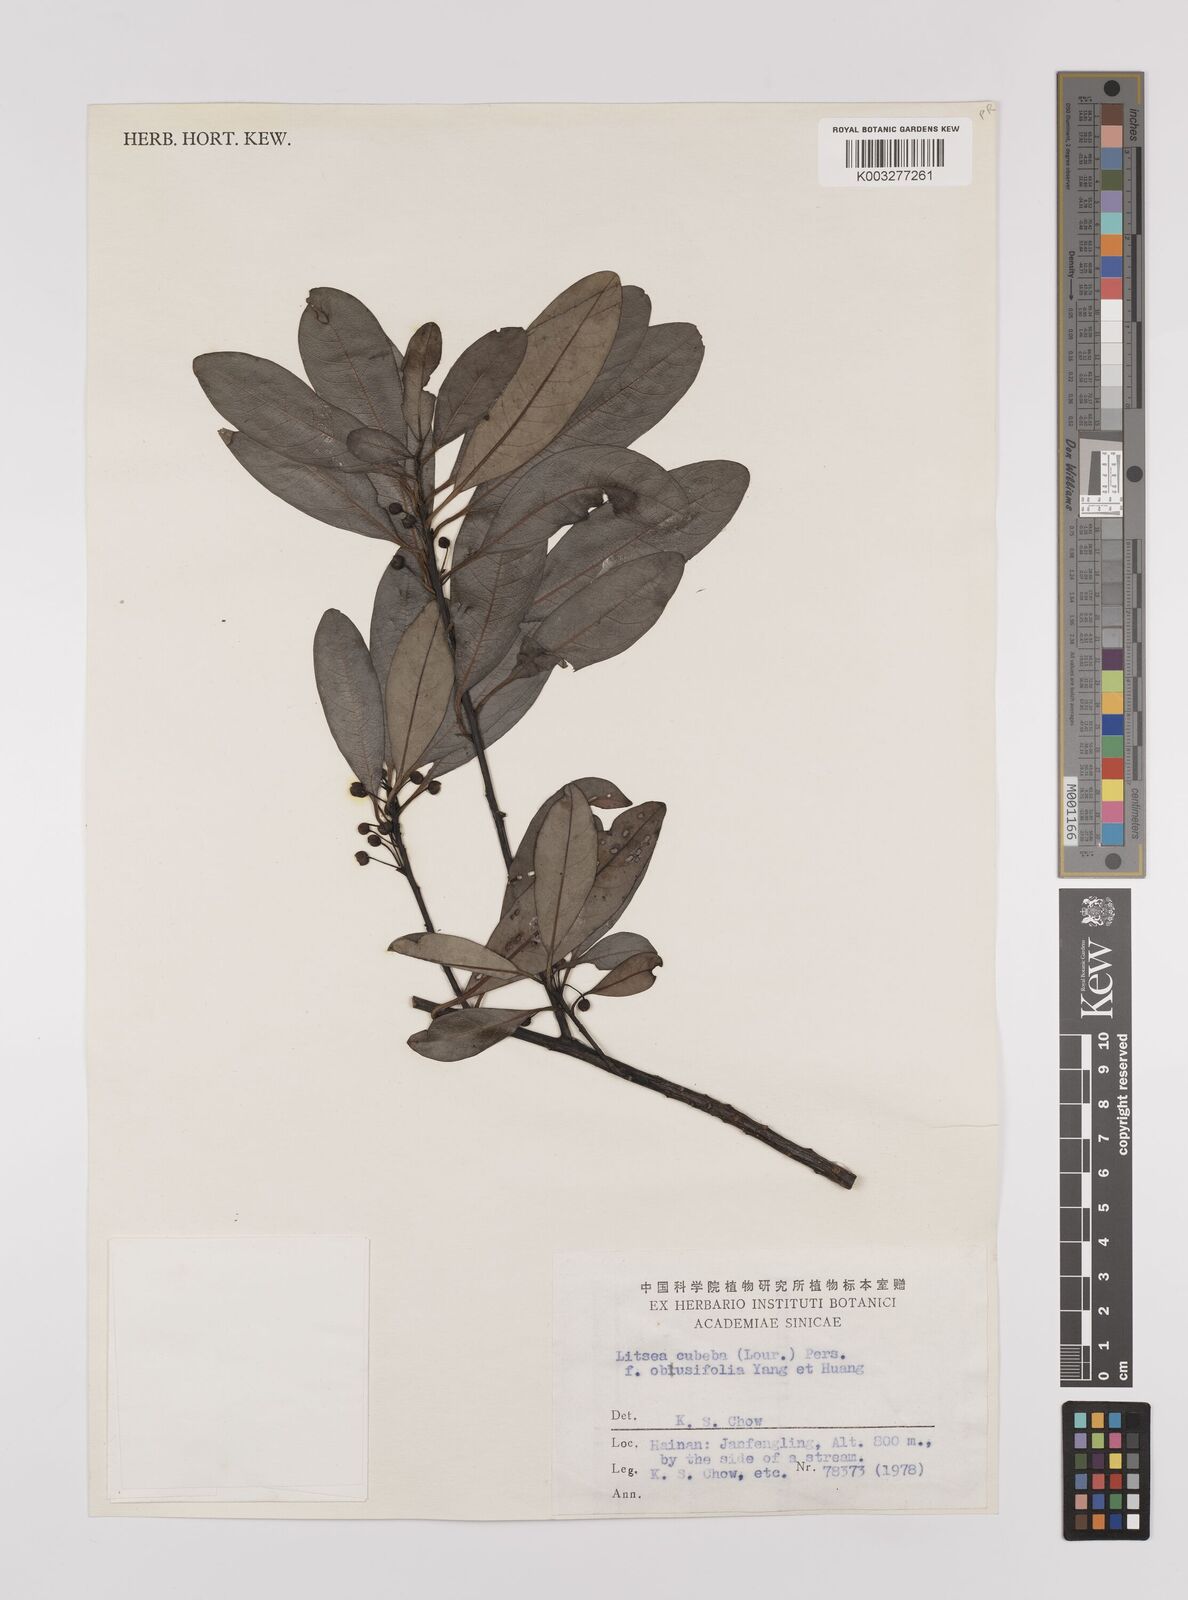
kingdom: Plantae
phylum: Tracheophyta
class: Magnoliopsida
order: Laurales
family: Lauraceae
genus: Litsea
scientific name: Litsea cubeba
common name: Mountain-pepper
